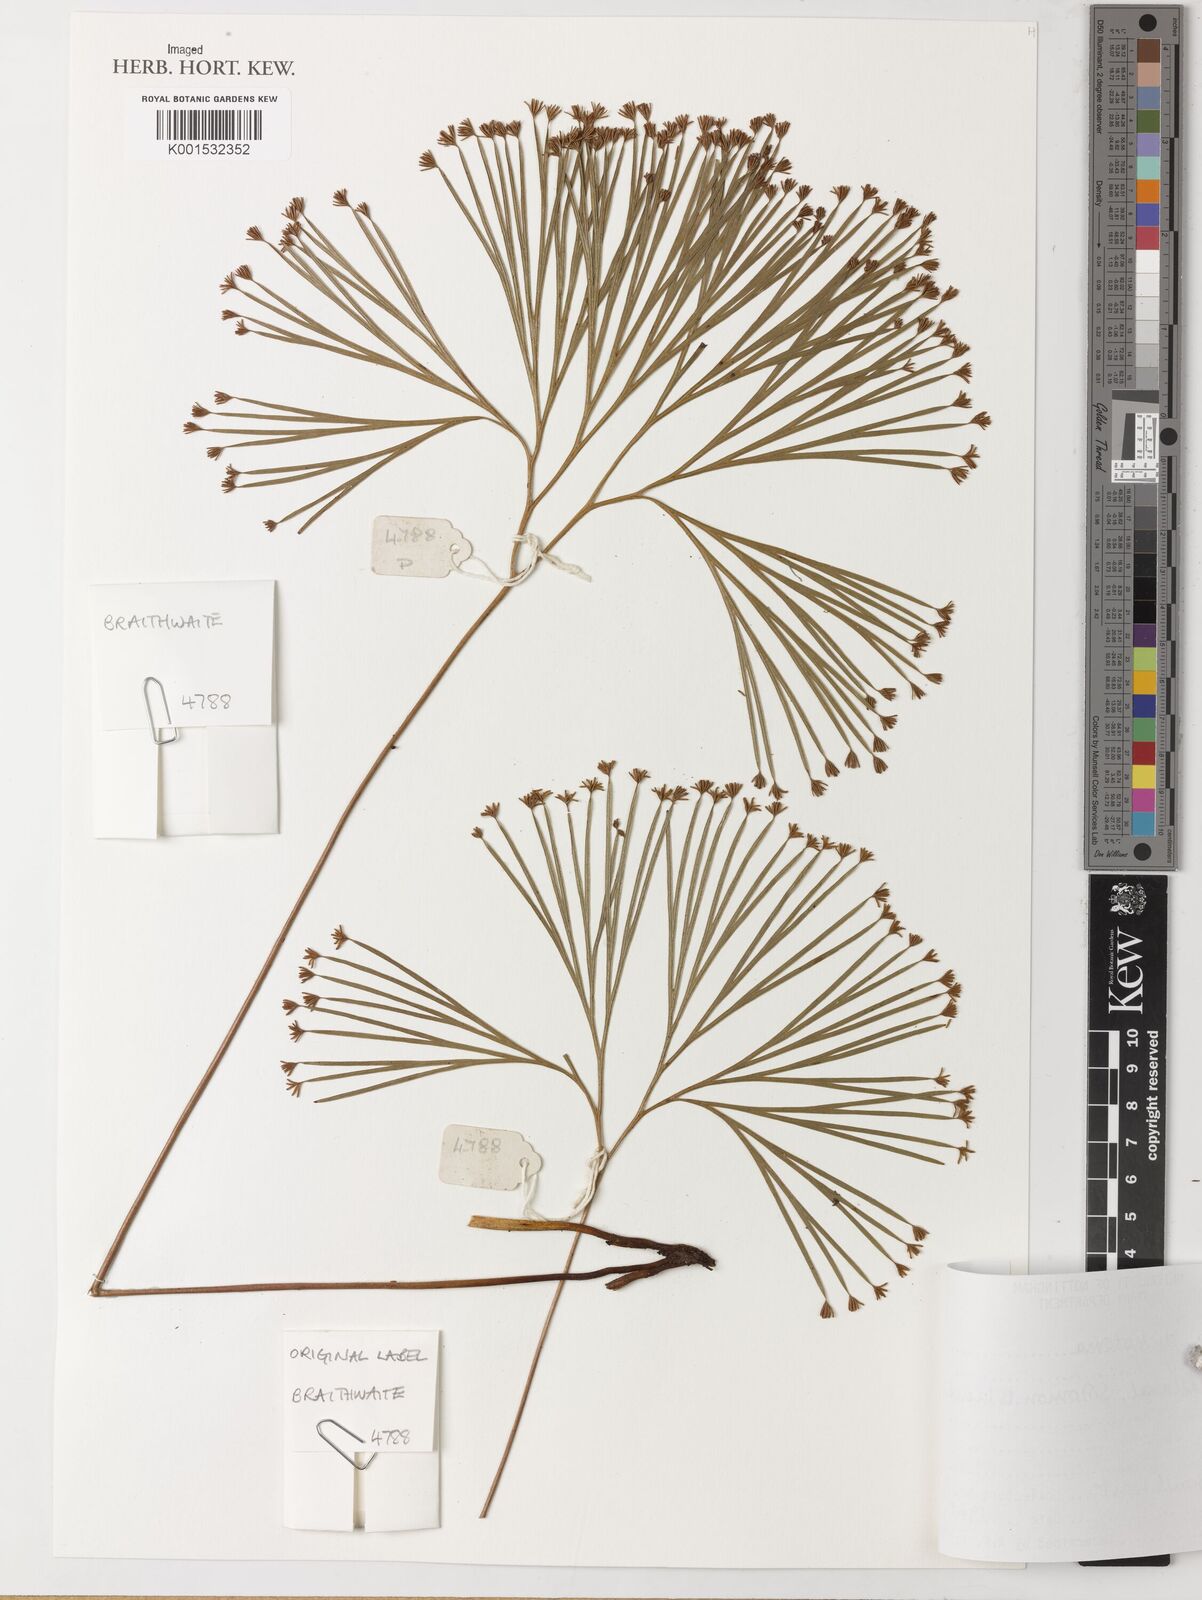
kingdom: Plantae
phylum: Tracheophyta
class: Polypodiopsida
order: Schizaeales
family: Schizaeaceae
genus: Schizaea
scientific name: Schizaea dichotoma
